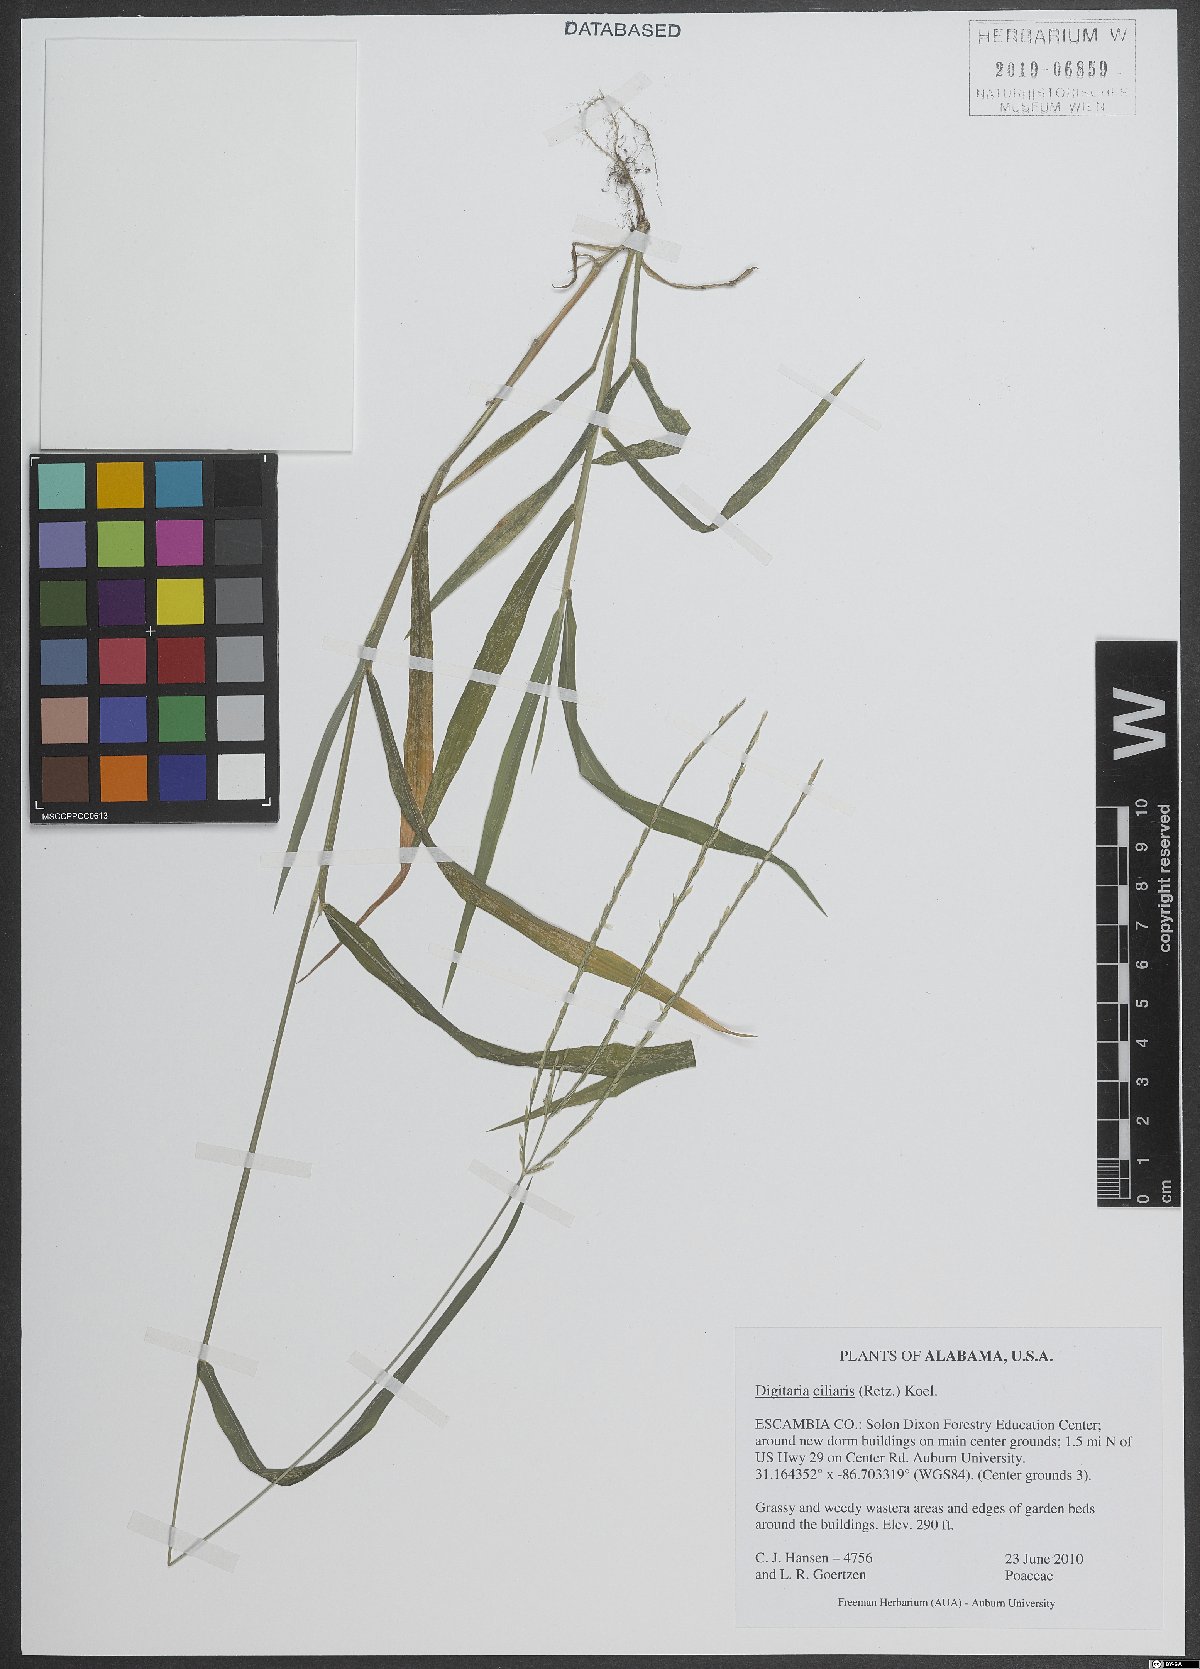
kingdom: Plantae
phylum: Tracheophyta
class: Liliopsida
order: Poales
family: Poaceae
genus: Digitaria
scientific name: Digitaria ciliaris
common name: Tropical finger-grass
